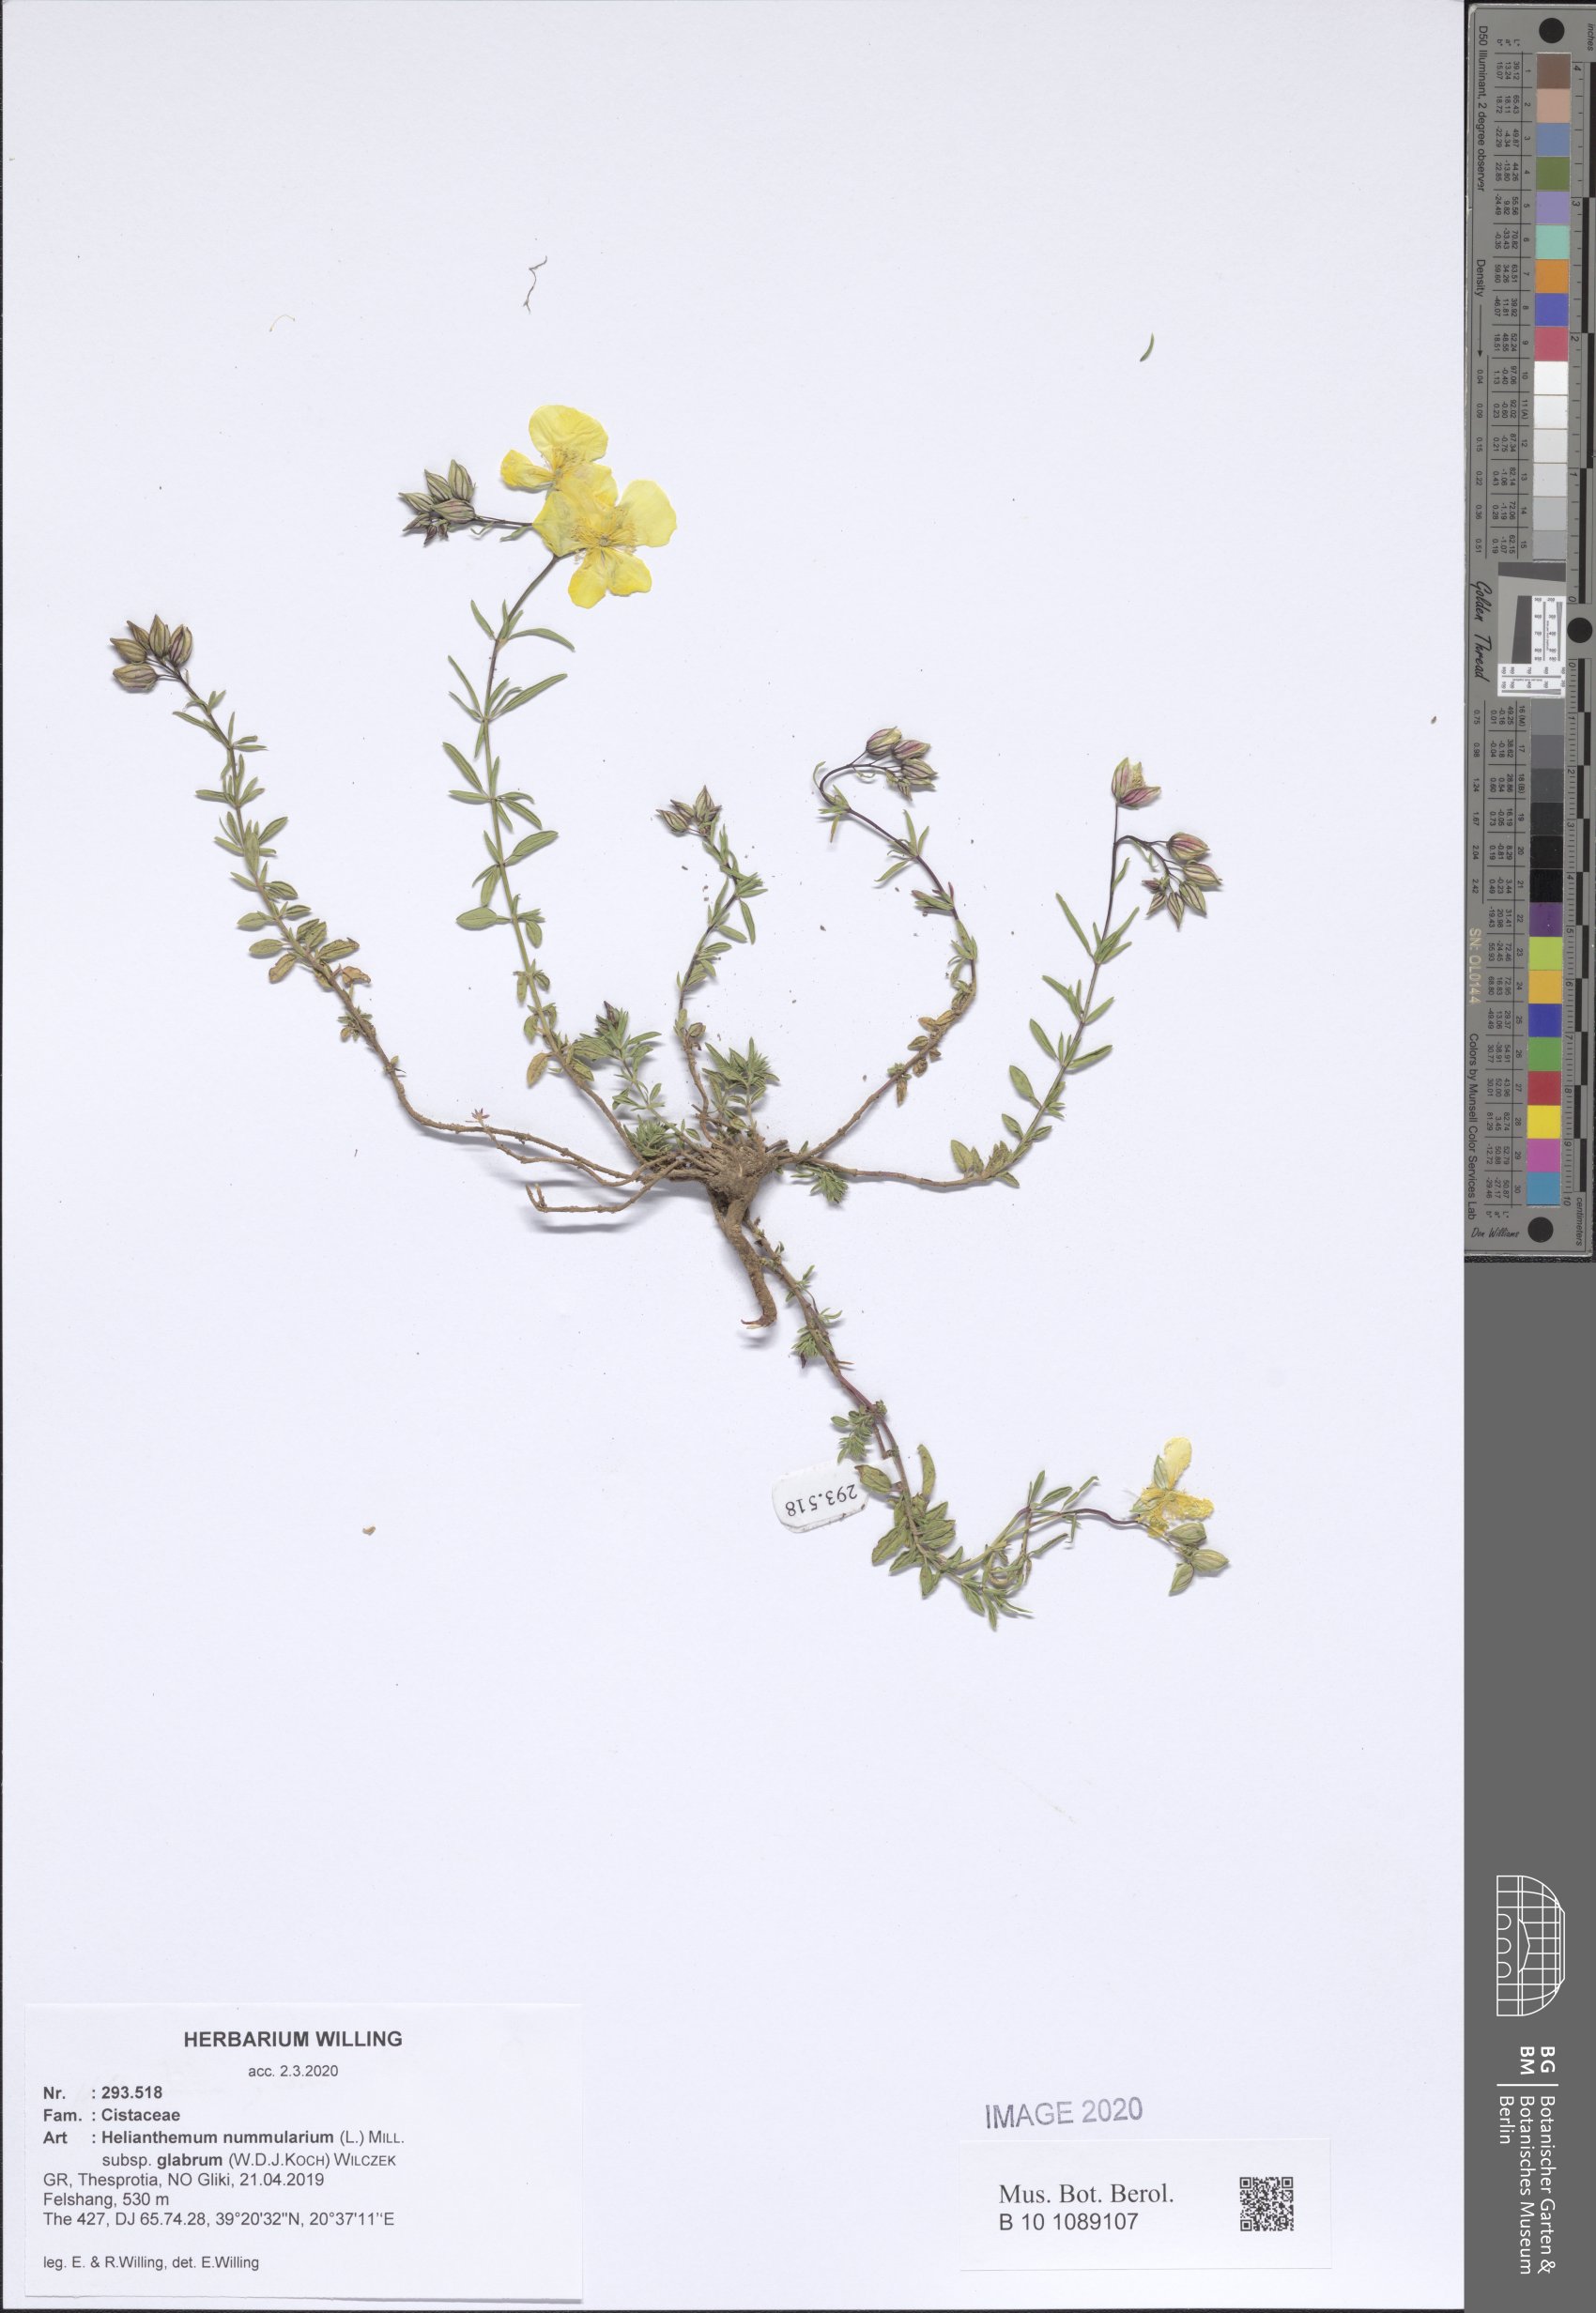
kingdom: Plantae
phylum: Tracheophyta
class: Magnoliopsida
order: Malvales
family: Cistaceae
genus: Helianthemum
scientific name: Helianthemum nummularium
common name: Common rock-rose
